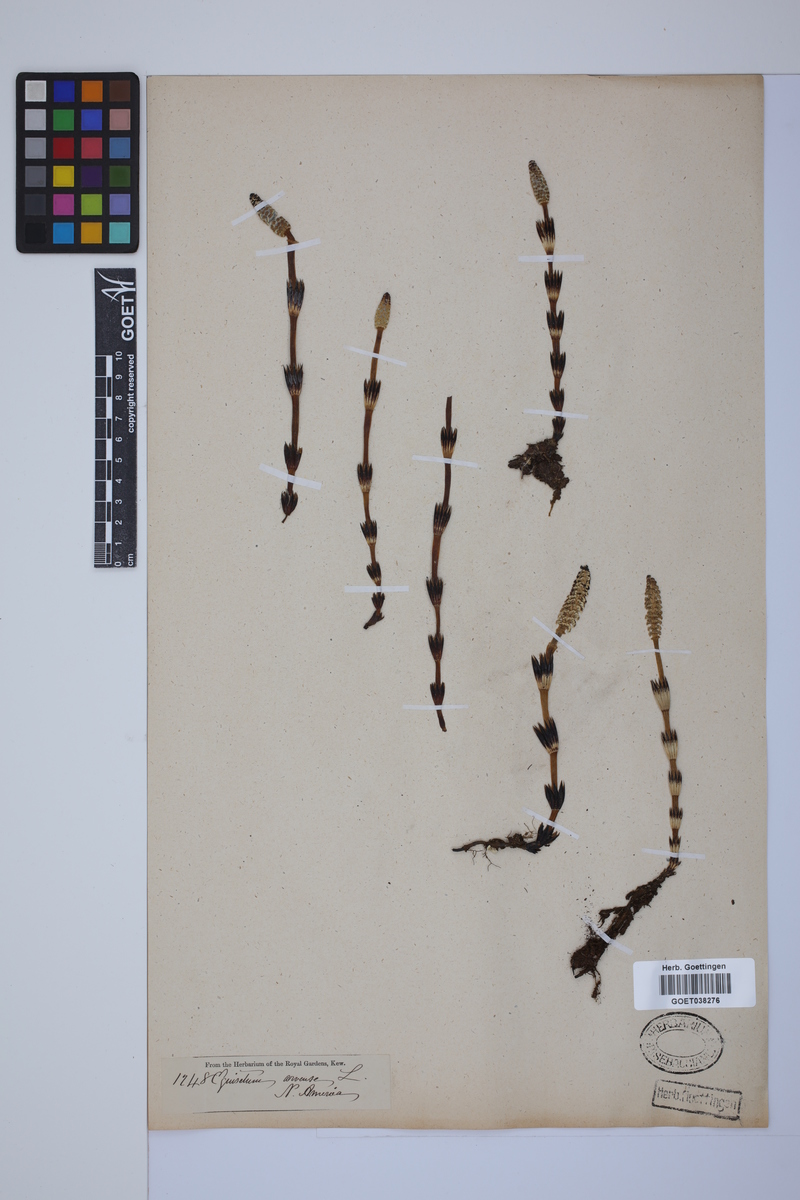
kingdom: Plantae
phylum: Tracheophyta
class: Polypodiopsida
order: Equisetales
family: Equisetaceae
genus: Equisetum
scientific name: Equisetum arvense
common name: Field horsetail
